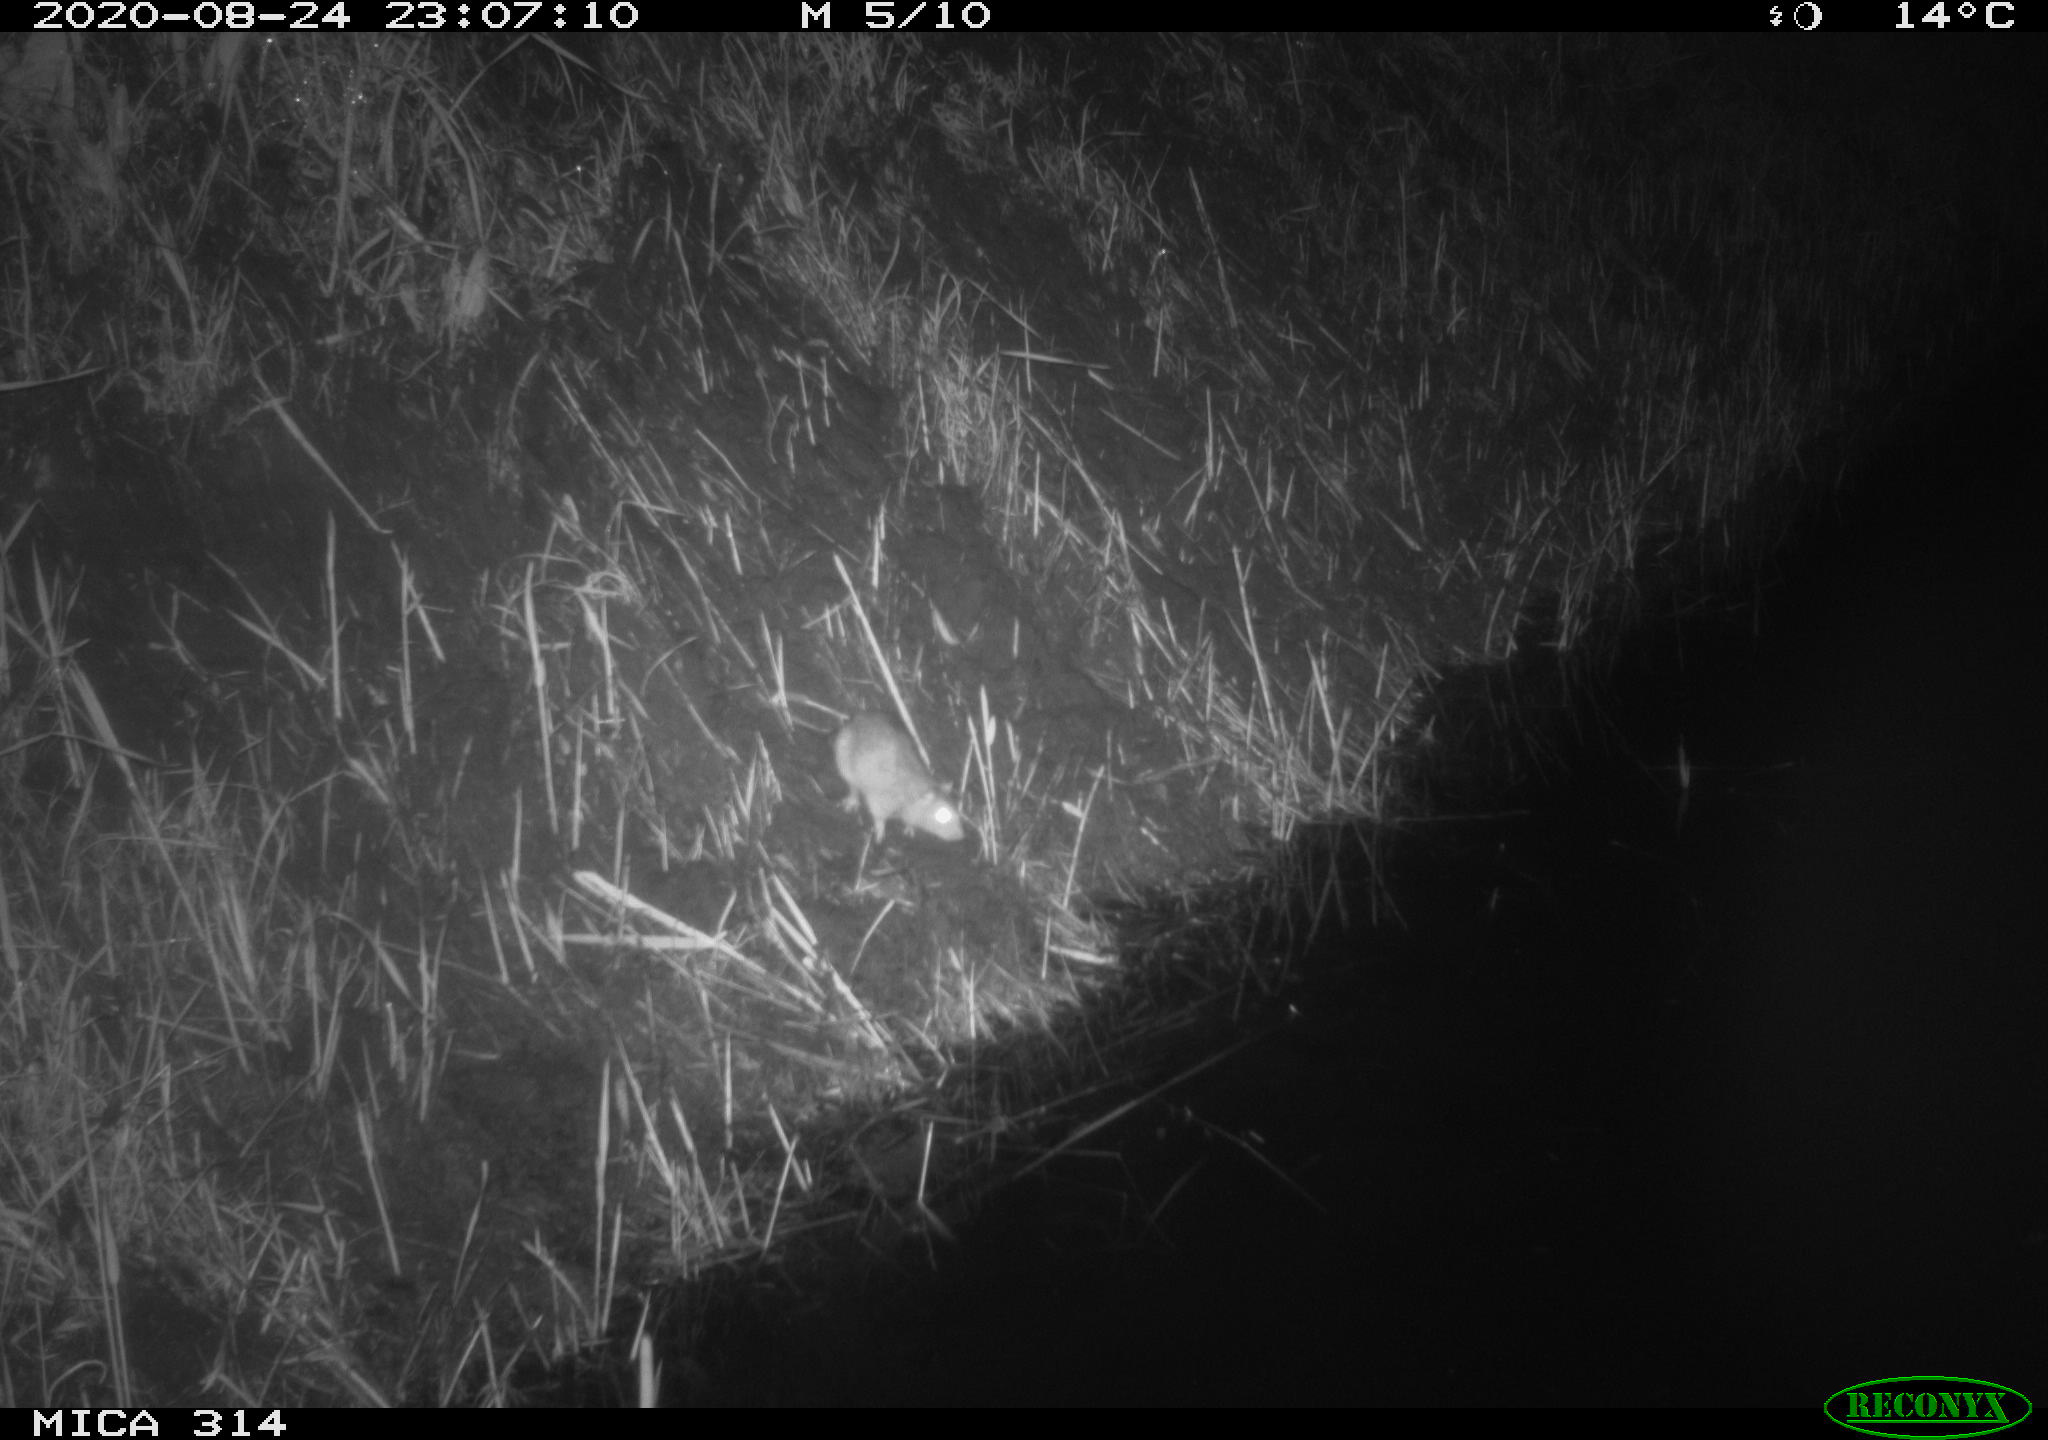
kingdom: Animalia
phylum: Chordata
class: Mammalia
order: Rodentia
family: Muridae
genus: Rattus
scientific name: Rattus norvegicus
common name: Brown rat
